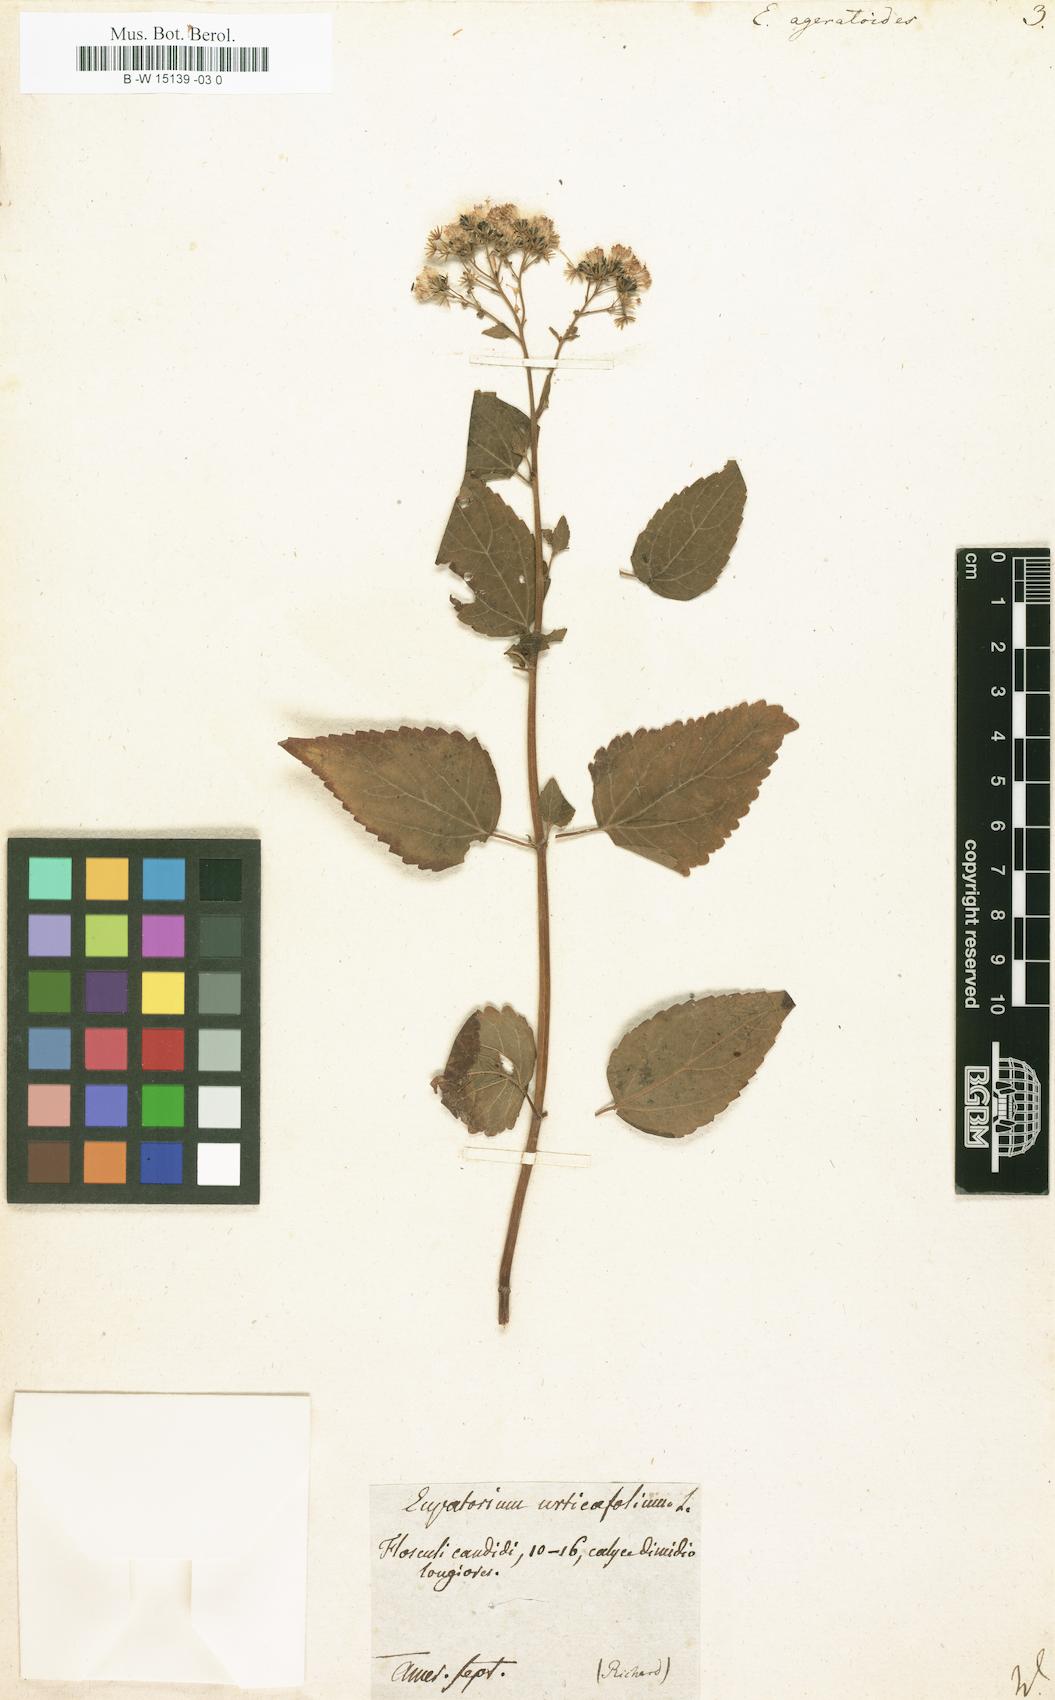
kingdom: Plantae
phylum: Tracheophyta
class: Magnoliopsida
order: Asterales
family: Asteraceae
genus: Ageratina
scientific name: Ageratina
